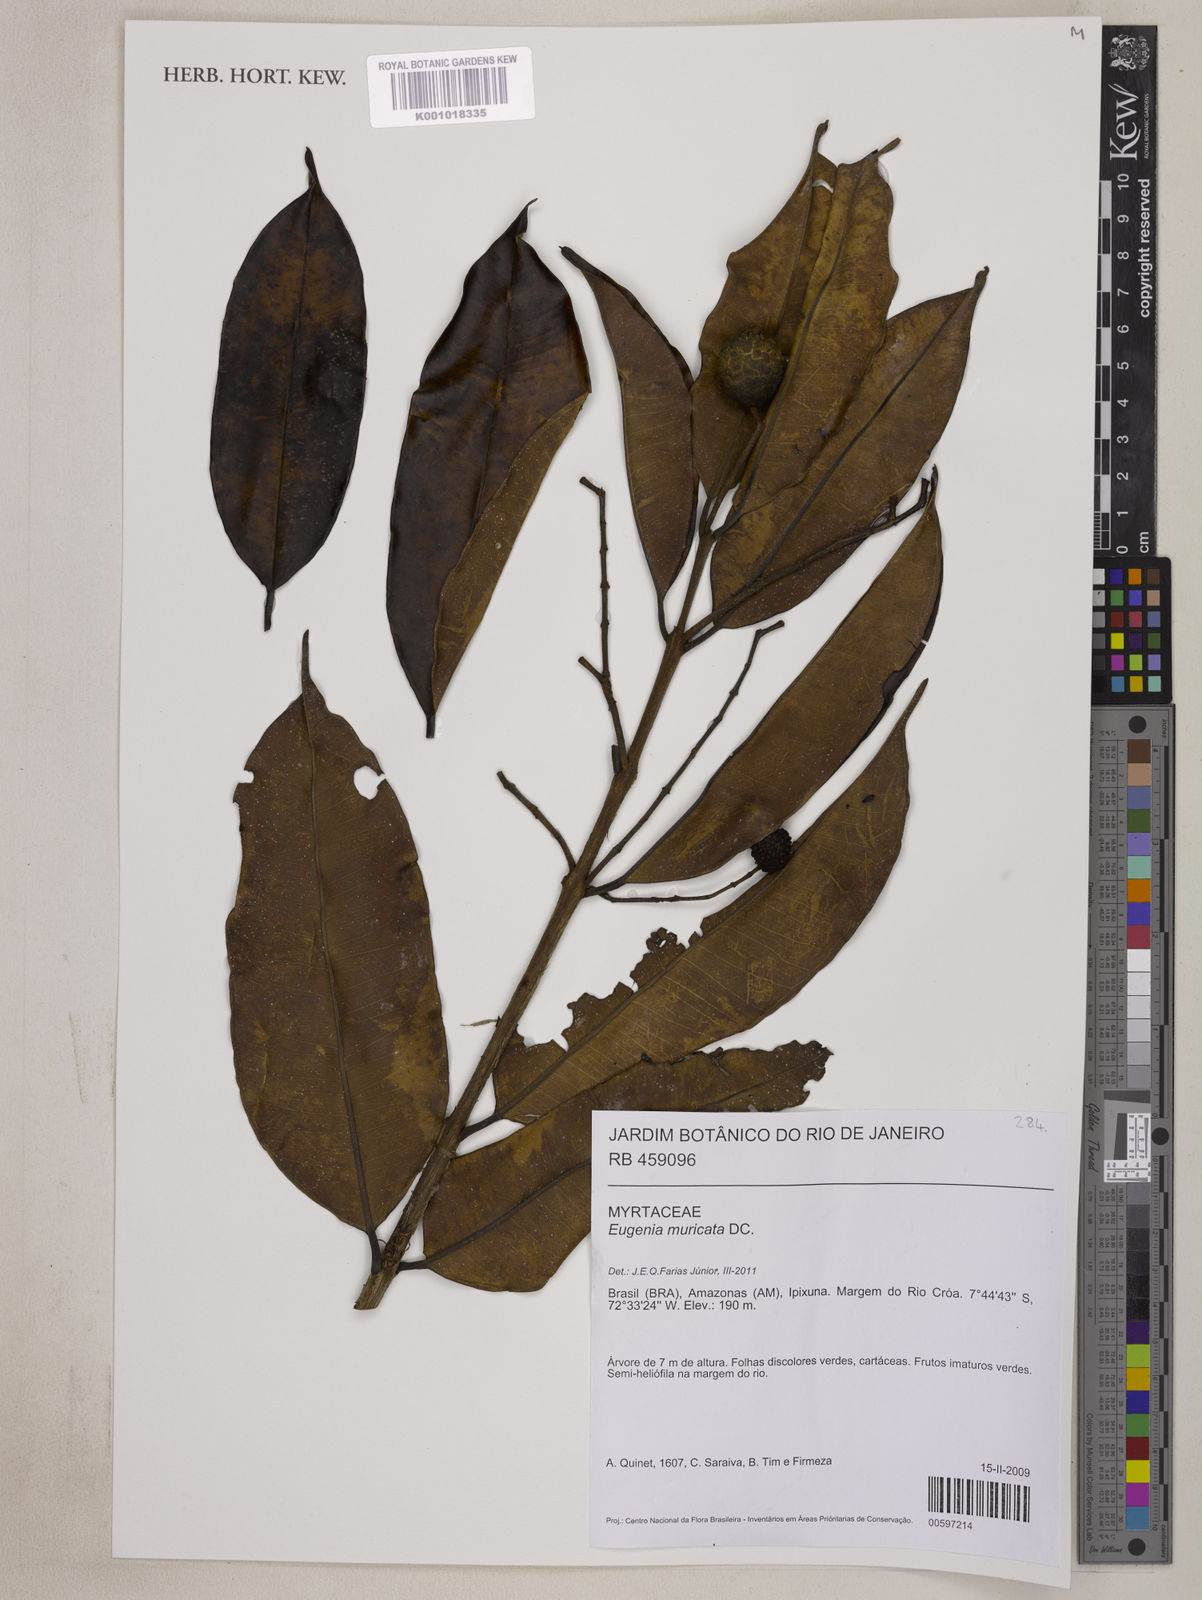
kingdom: Plantae
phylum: Tracheophyta
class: Magnoliopsida
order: Myrtales
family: Myrtaceae
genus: Eugenia
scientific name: Eugenia muricata
